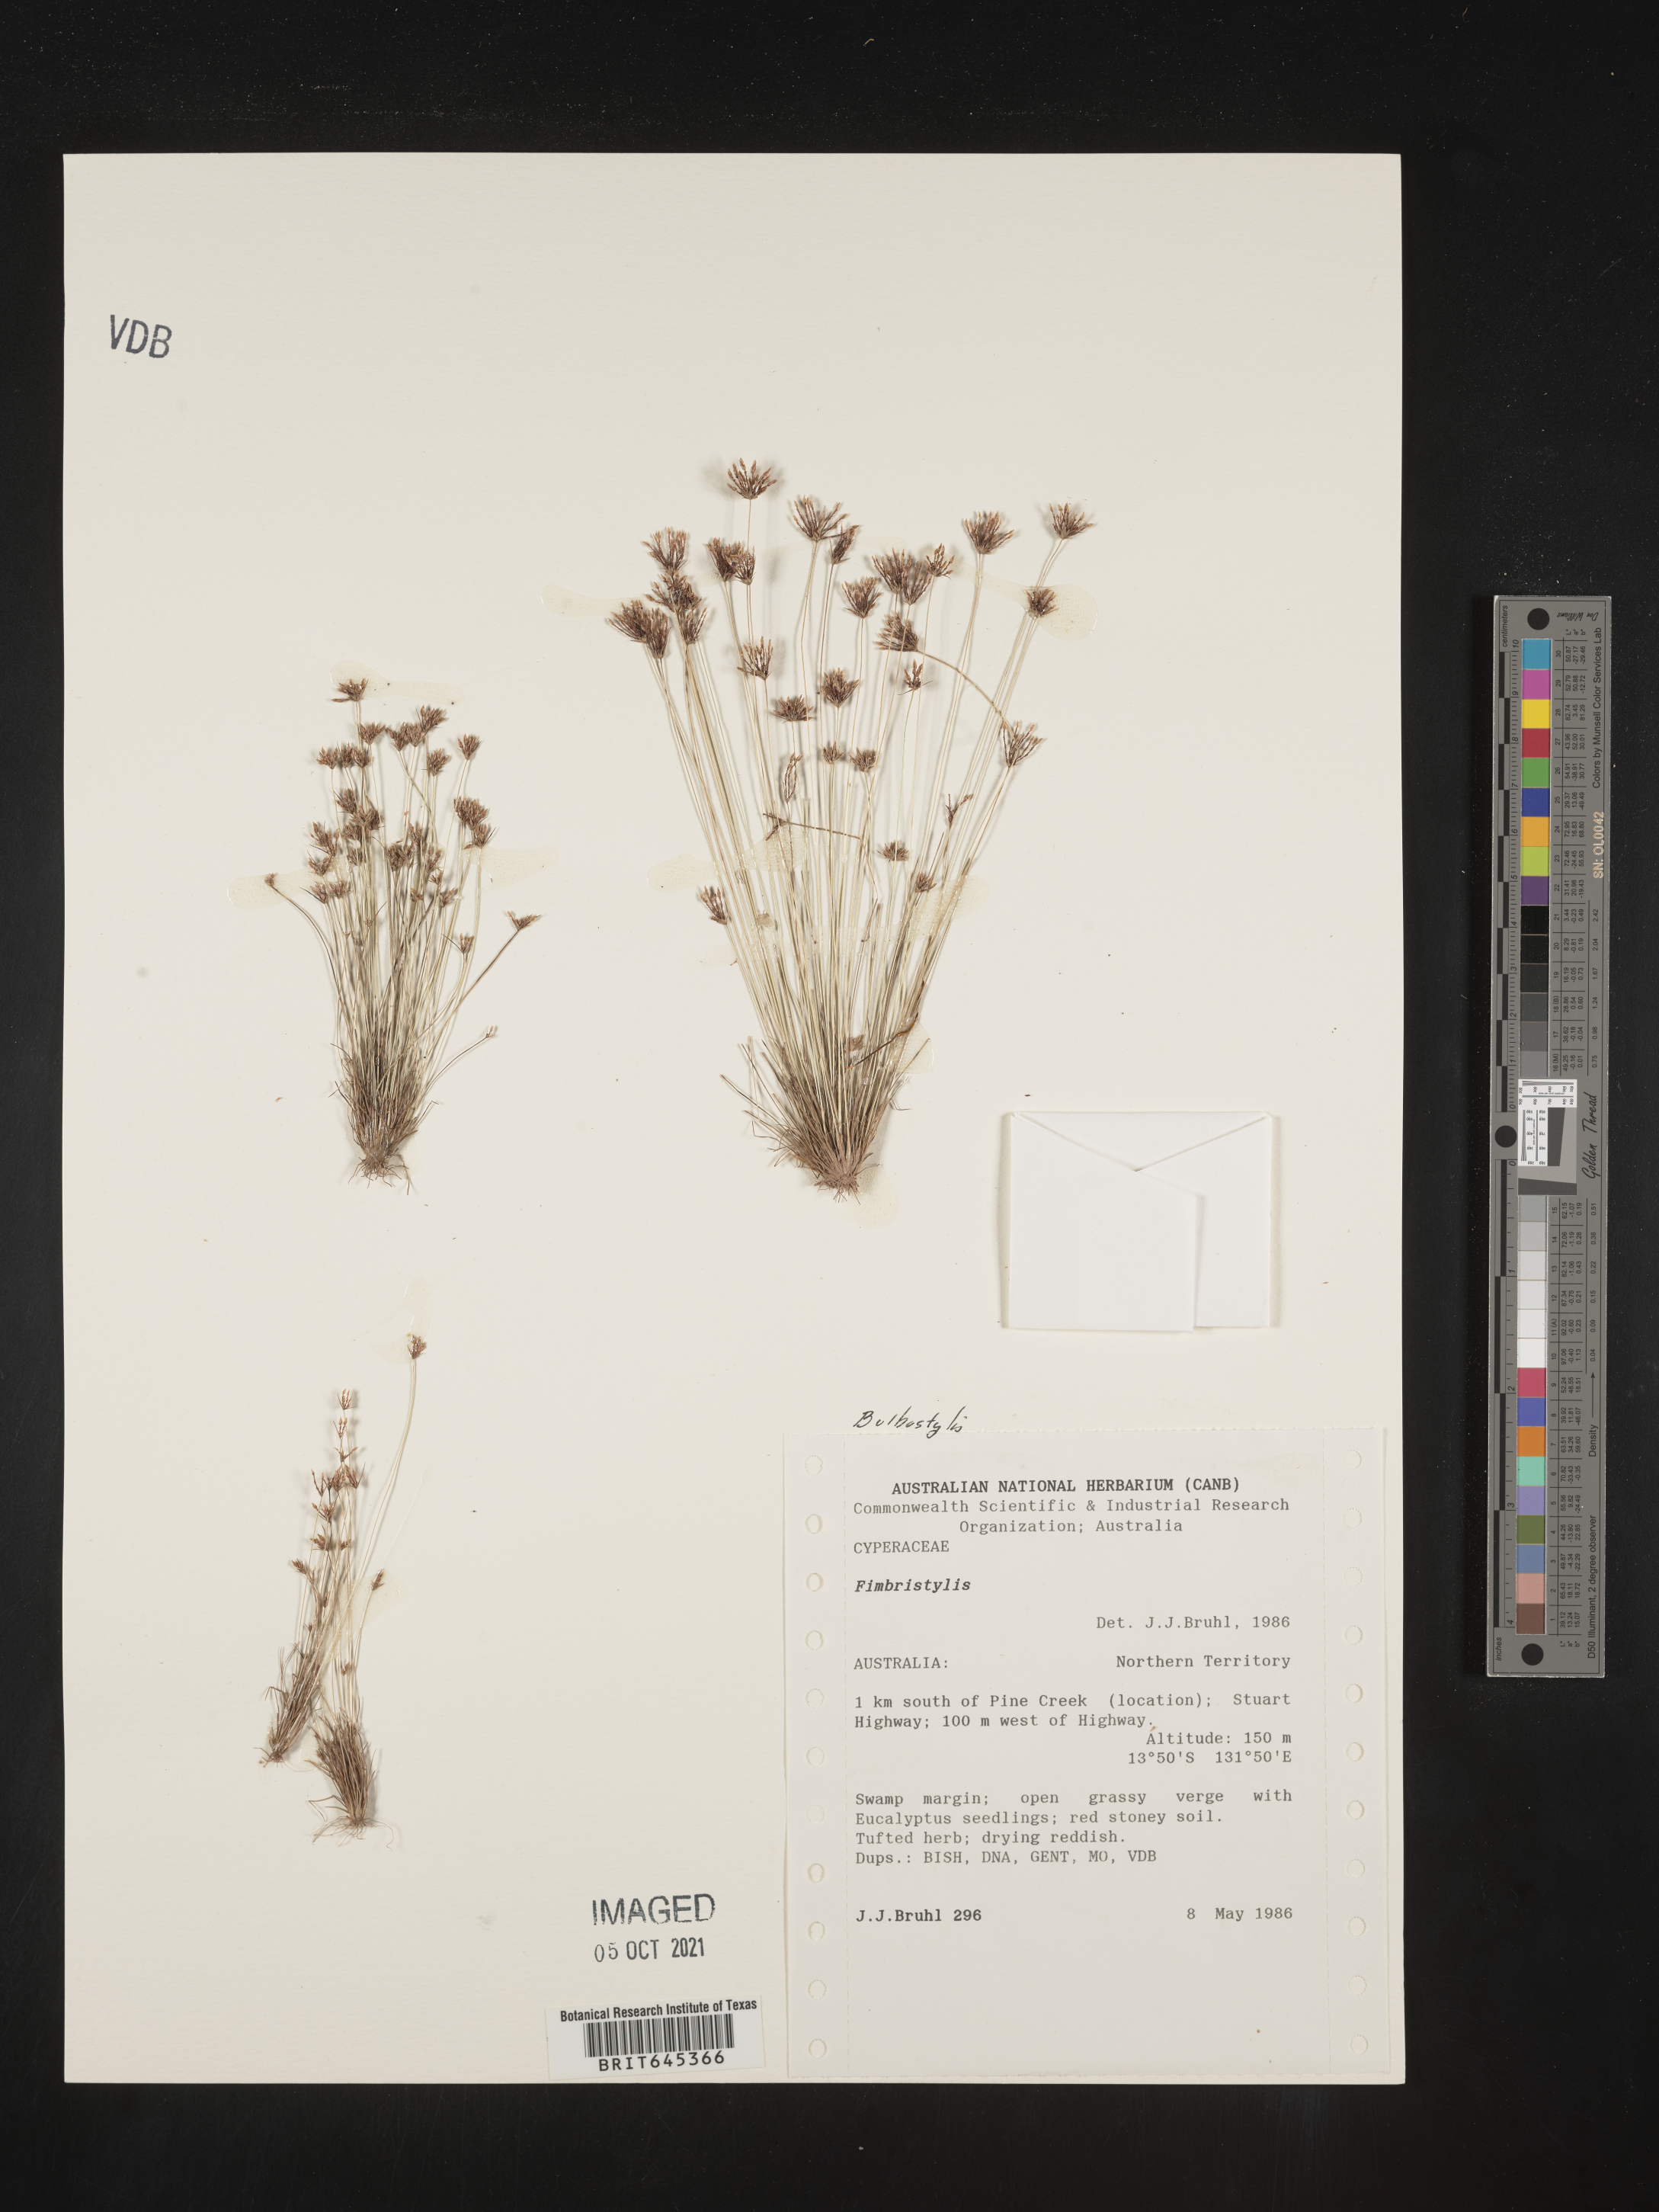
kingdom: Plantae
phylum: Tracheophyta
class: Liliopsida
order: Poales
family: Cyperaceae
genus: Bulbostylis
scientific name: Bulbostylis barbata
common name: Watergrass
